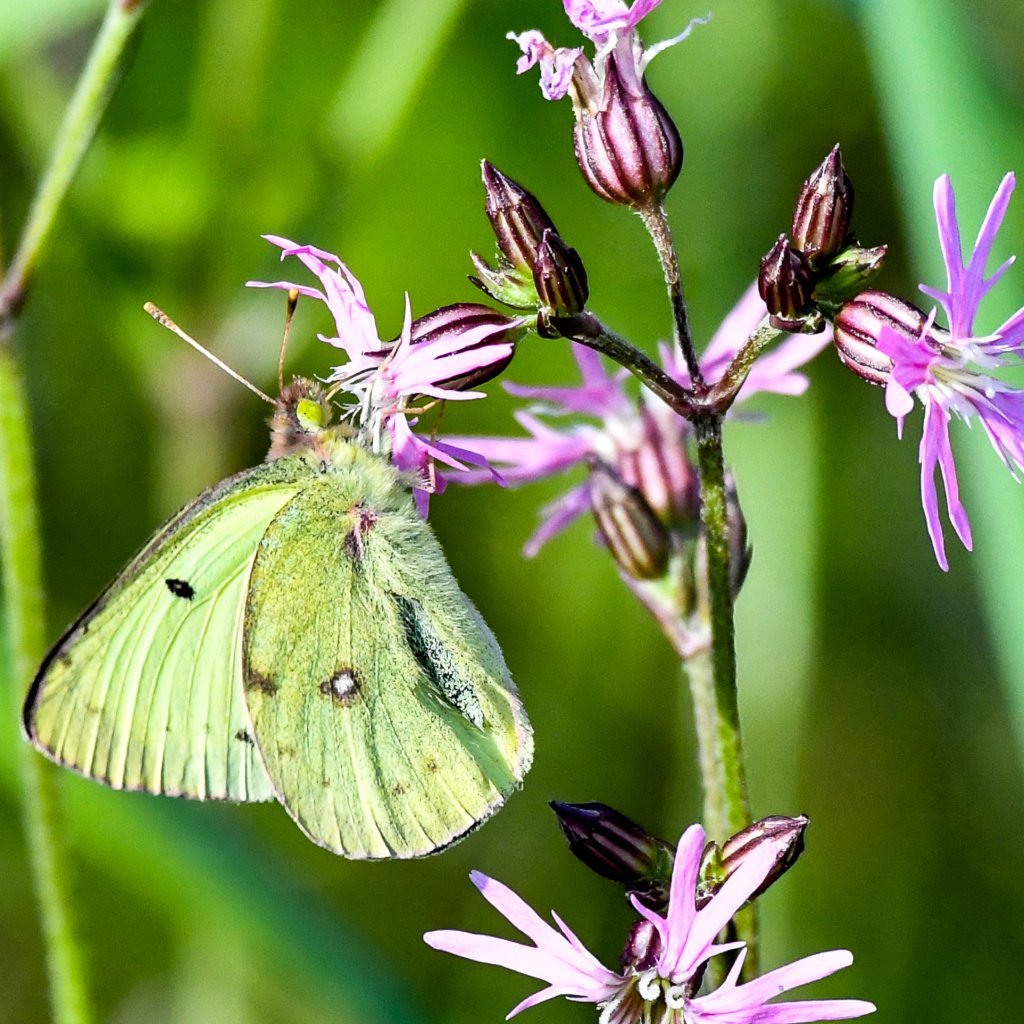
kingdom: Animalia
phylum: Arthropoda
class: Insecta
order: Lepidoptera
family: Pieridae
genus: Colias
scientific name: Colias philodice
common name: Clouded Sulphur
